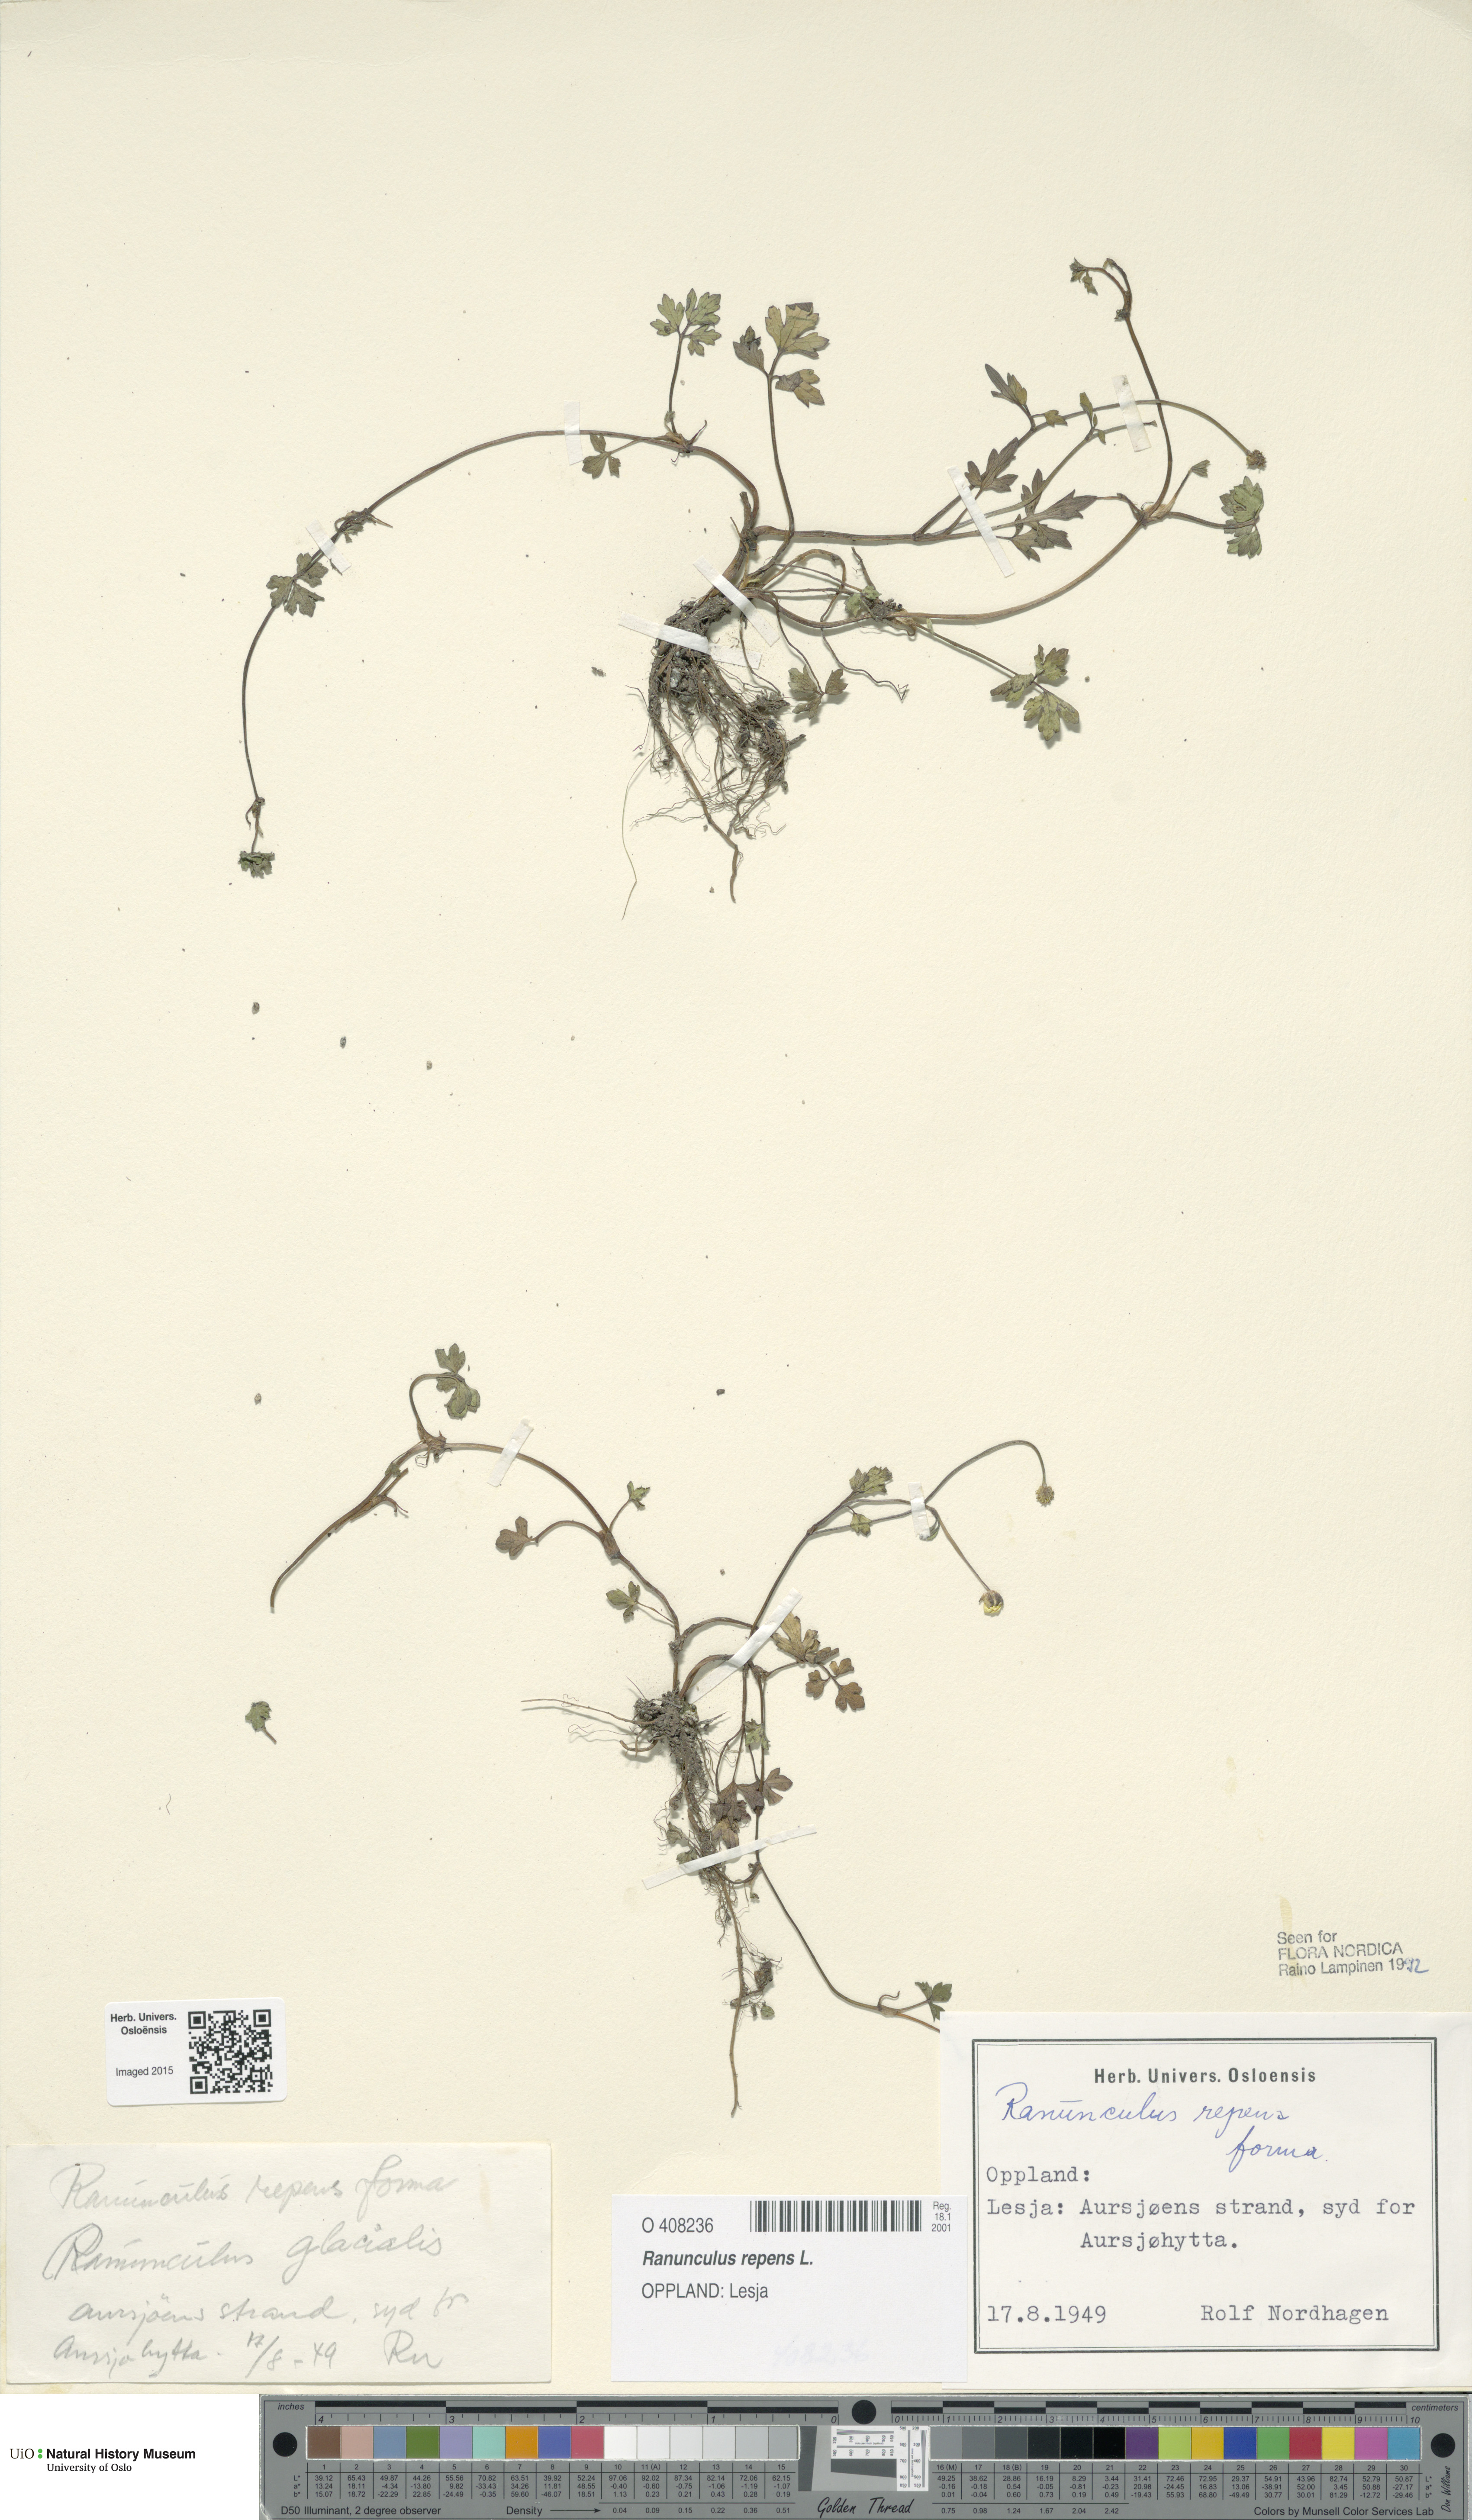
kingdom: Plantae
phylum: Tracheophyta
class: Magnoliopsida
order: Ranunculales
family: Ranunculaceae
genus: Ranunculus
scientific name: Ranunculus repens
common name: Creeping buttercup
